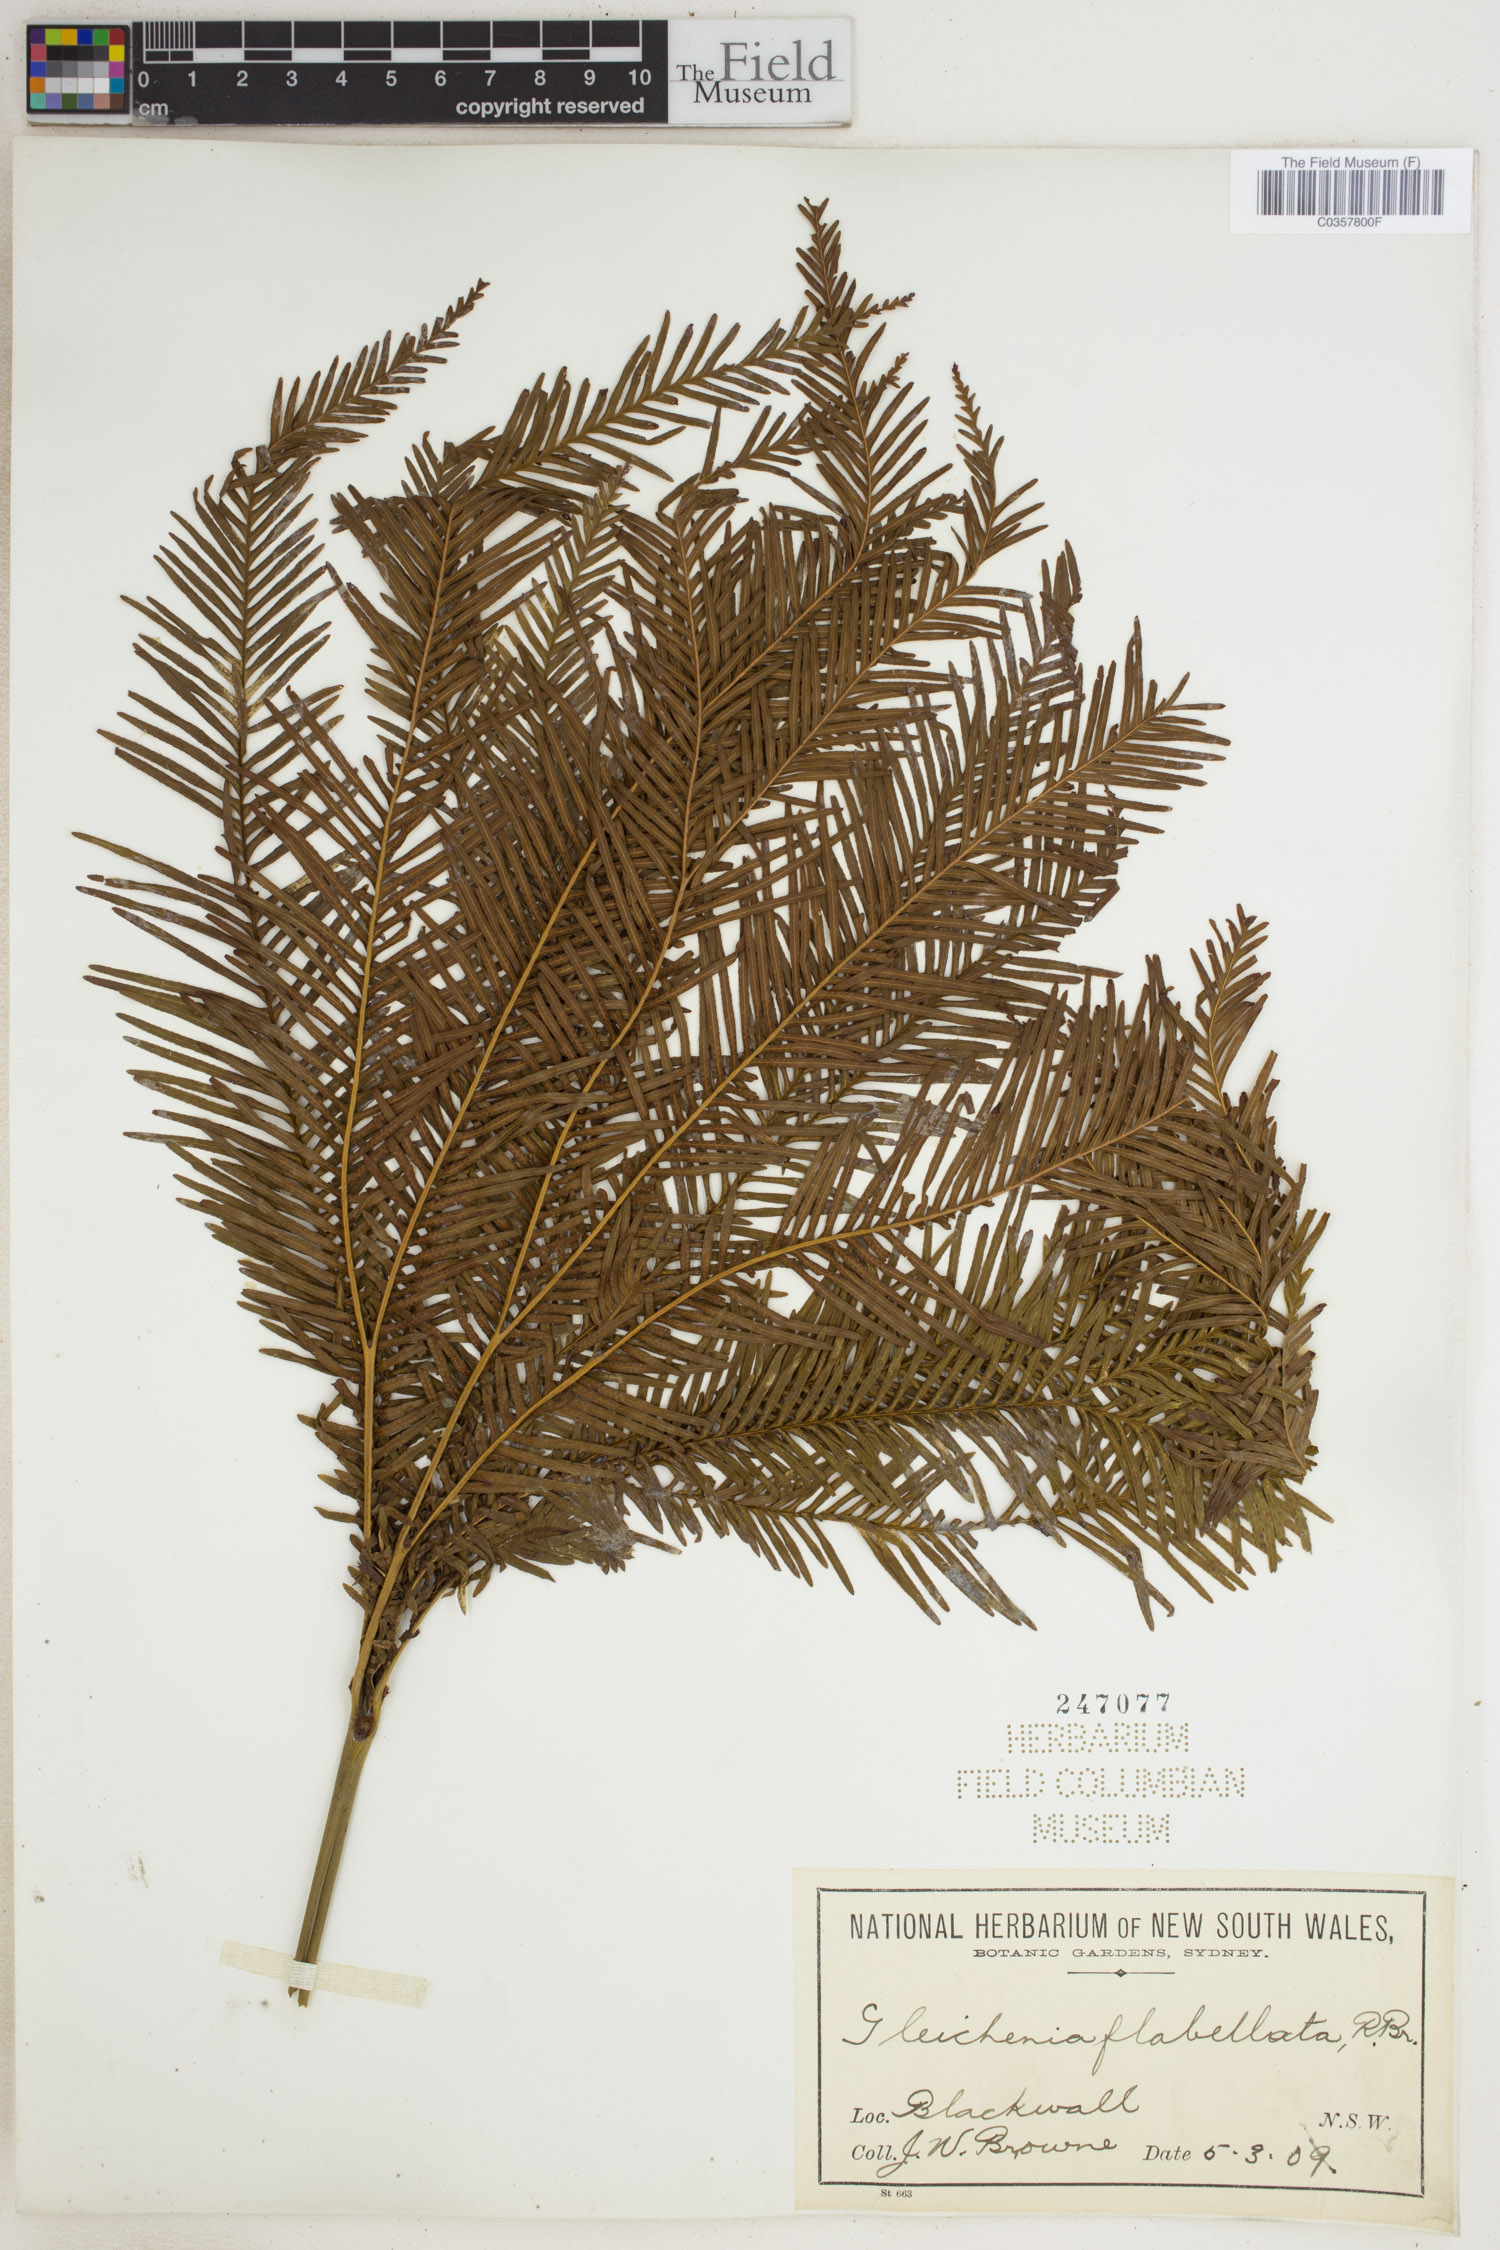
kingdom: Plantae
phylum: Tracheophyta
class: Polypodiopsida
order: Gleicheniales
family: Gleicheniaceae
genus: Sticherus
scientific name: Sticherus flabellatus
